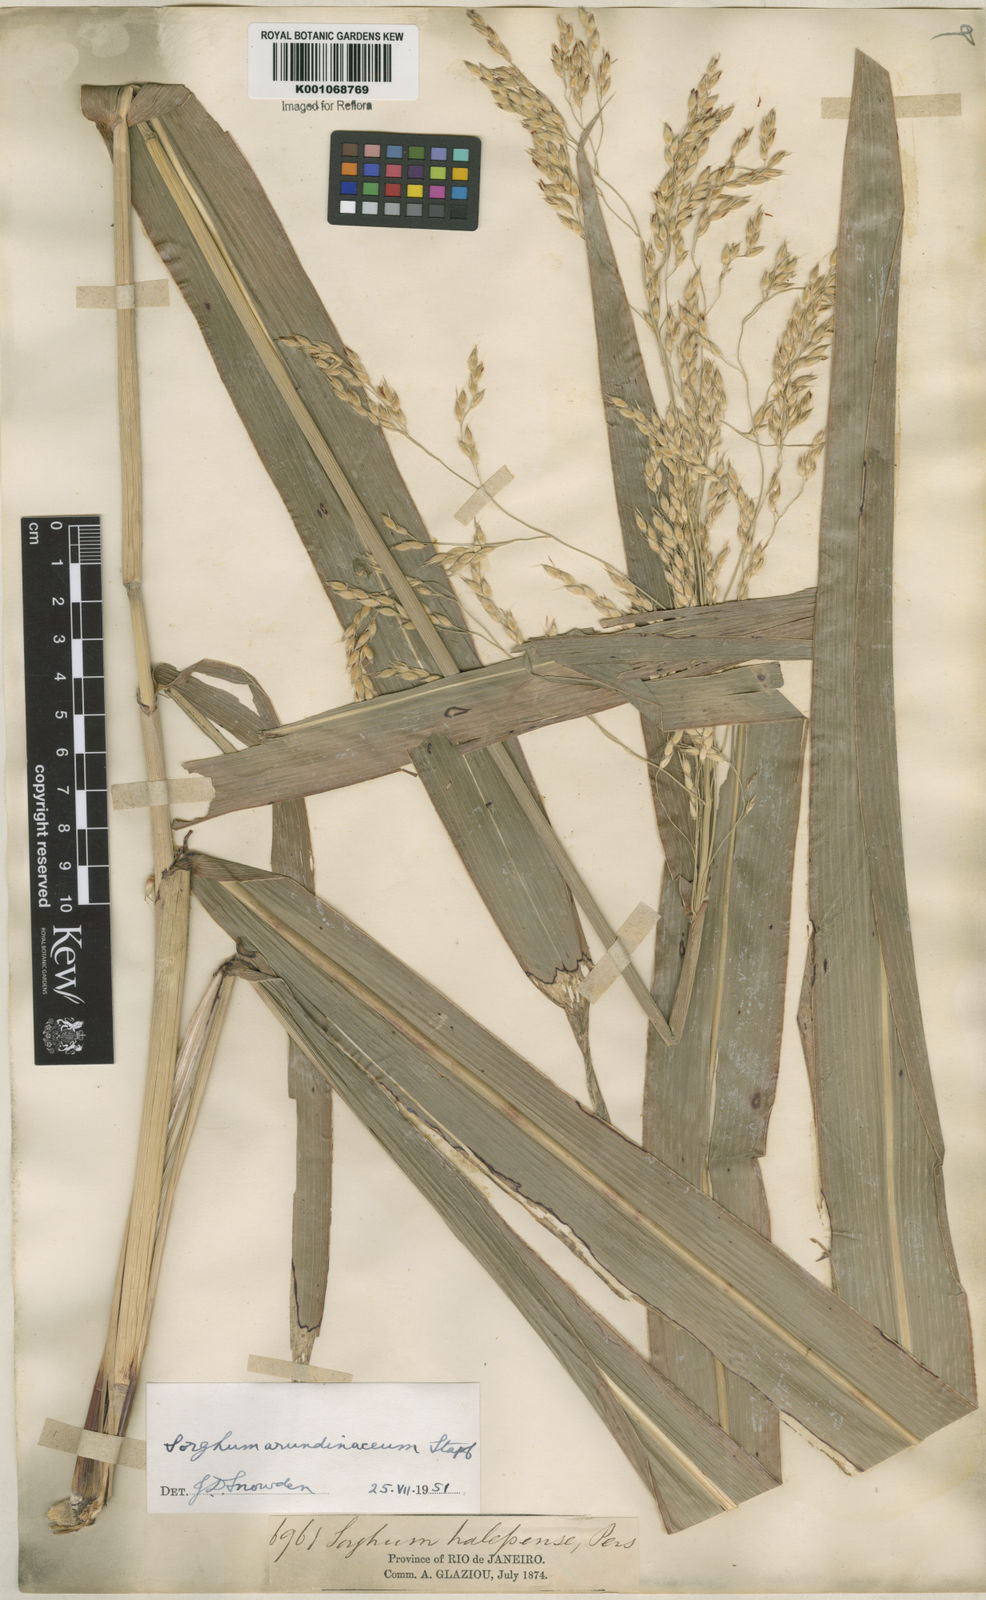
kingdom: Plantae
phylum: Tracheophyta
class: Liliopsida
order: Poales
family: Poaceae
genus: Sorghum
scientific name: Sorghum arundinaceum
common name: Sorghum
